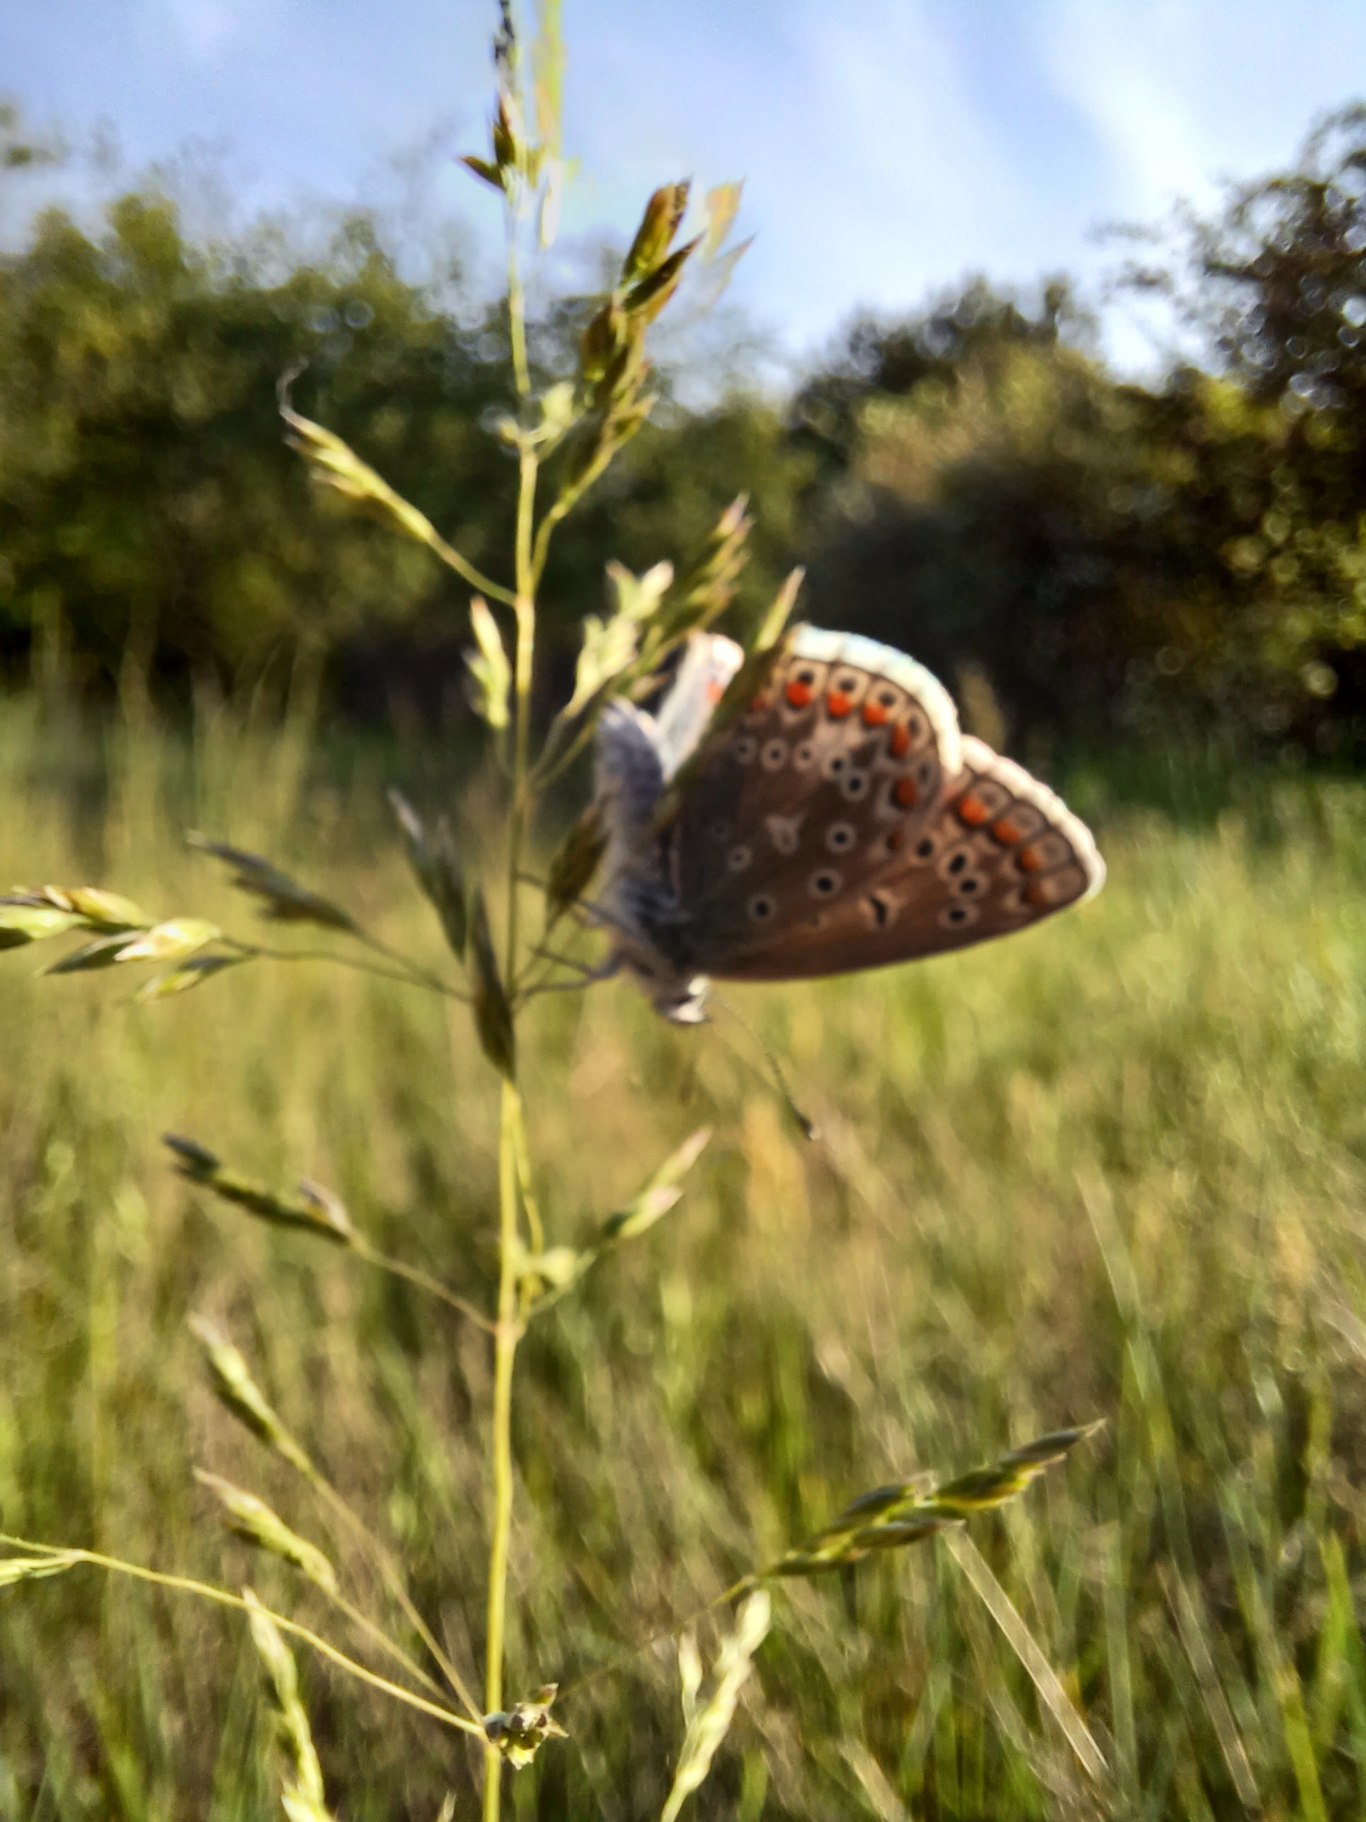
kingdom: Animalia
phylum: Arthropoda
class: Insecta
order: Lepidoptera
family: Lycaenidae
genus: Polyommatus
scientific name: Polyommatus icarus
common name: Almindelig blåfugl
